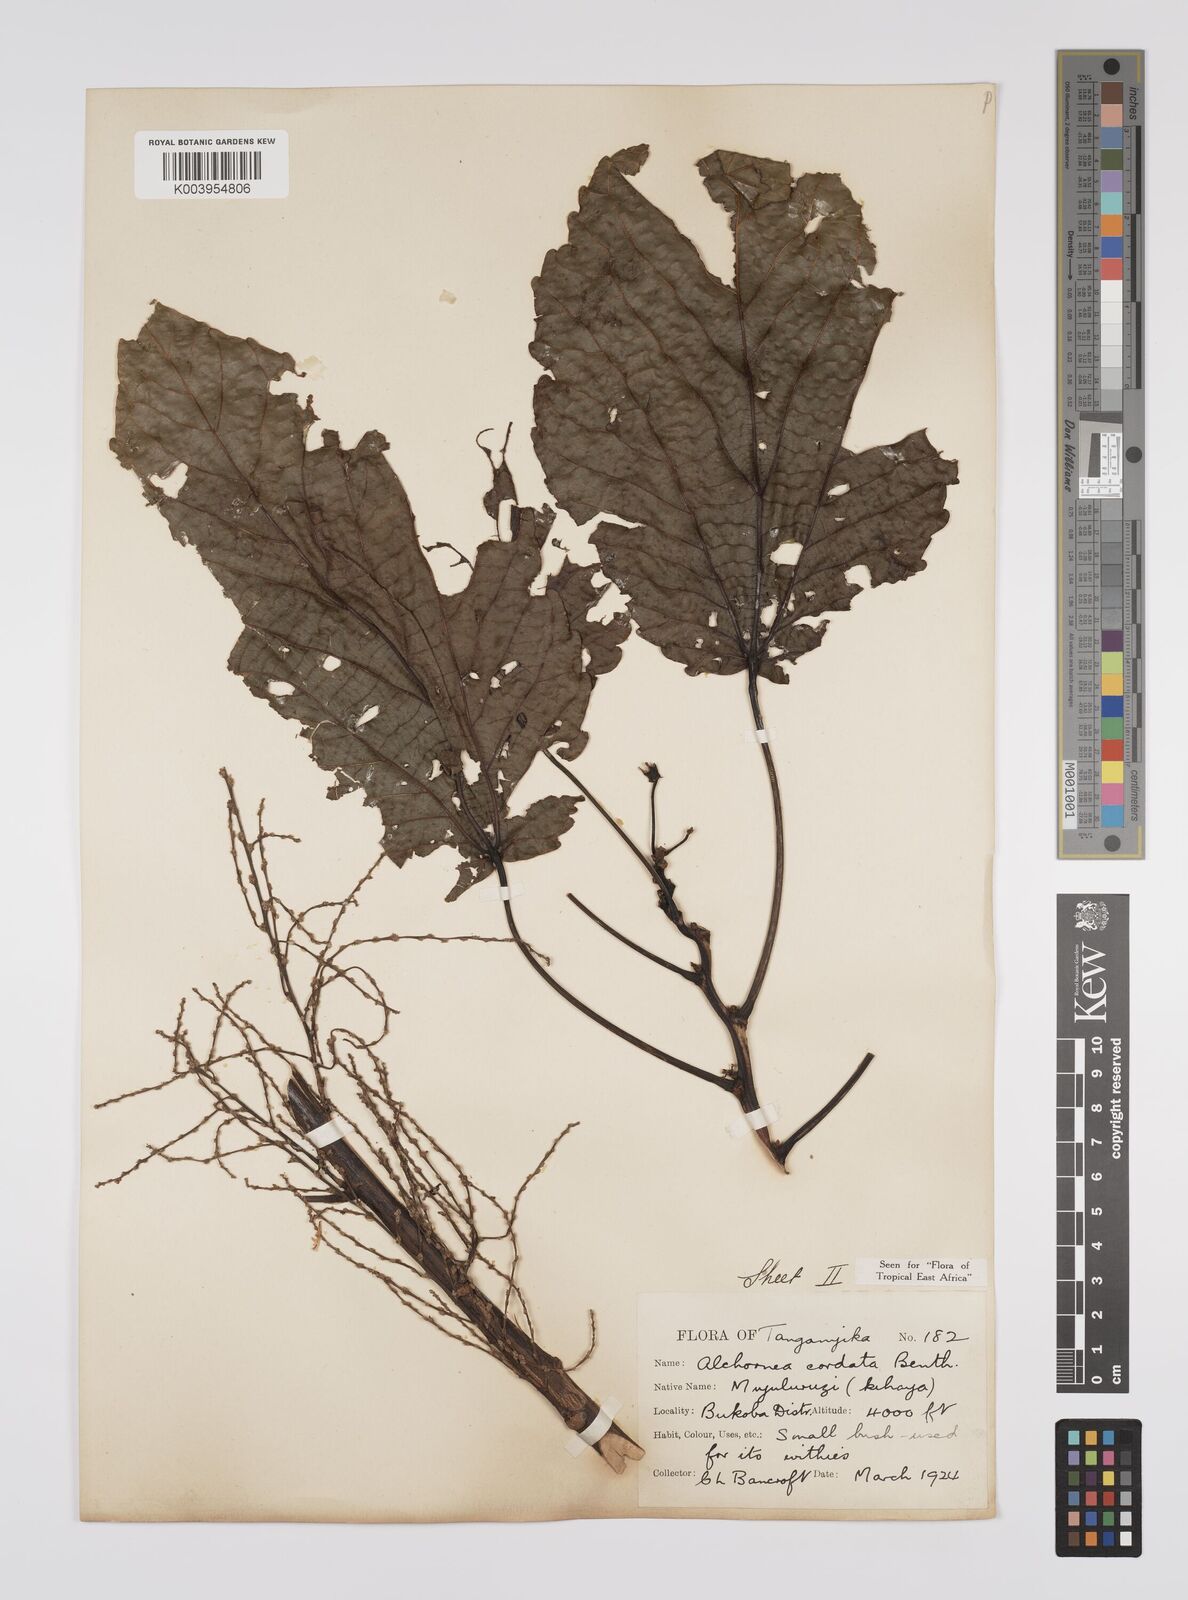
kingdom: Plantae
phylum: Tracheophyta
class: Magnoliopsida
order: Malpighiales
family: Euphorbiaceae
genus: Alchornea
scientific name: Alchornea cordifolia
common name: Christmasbush
